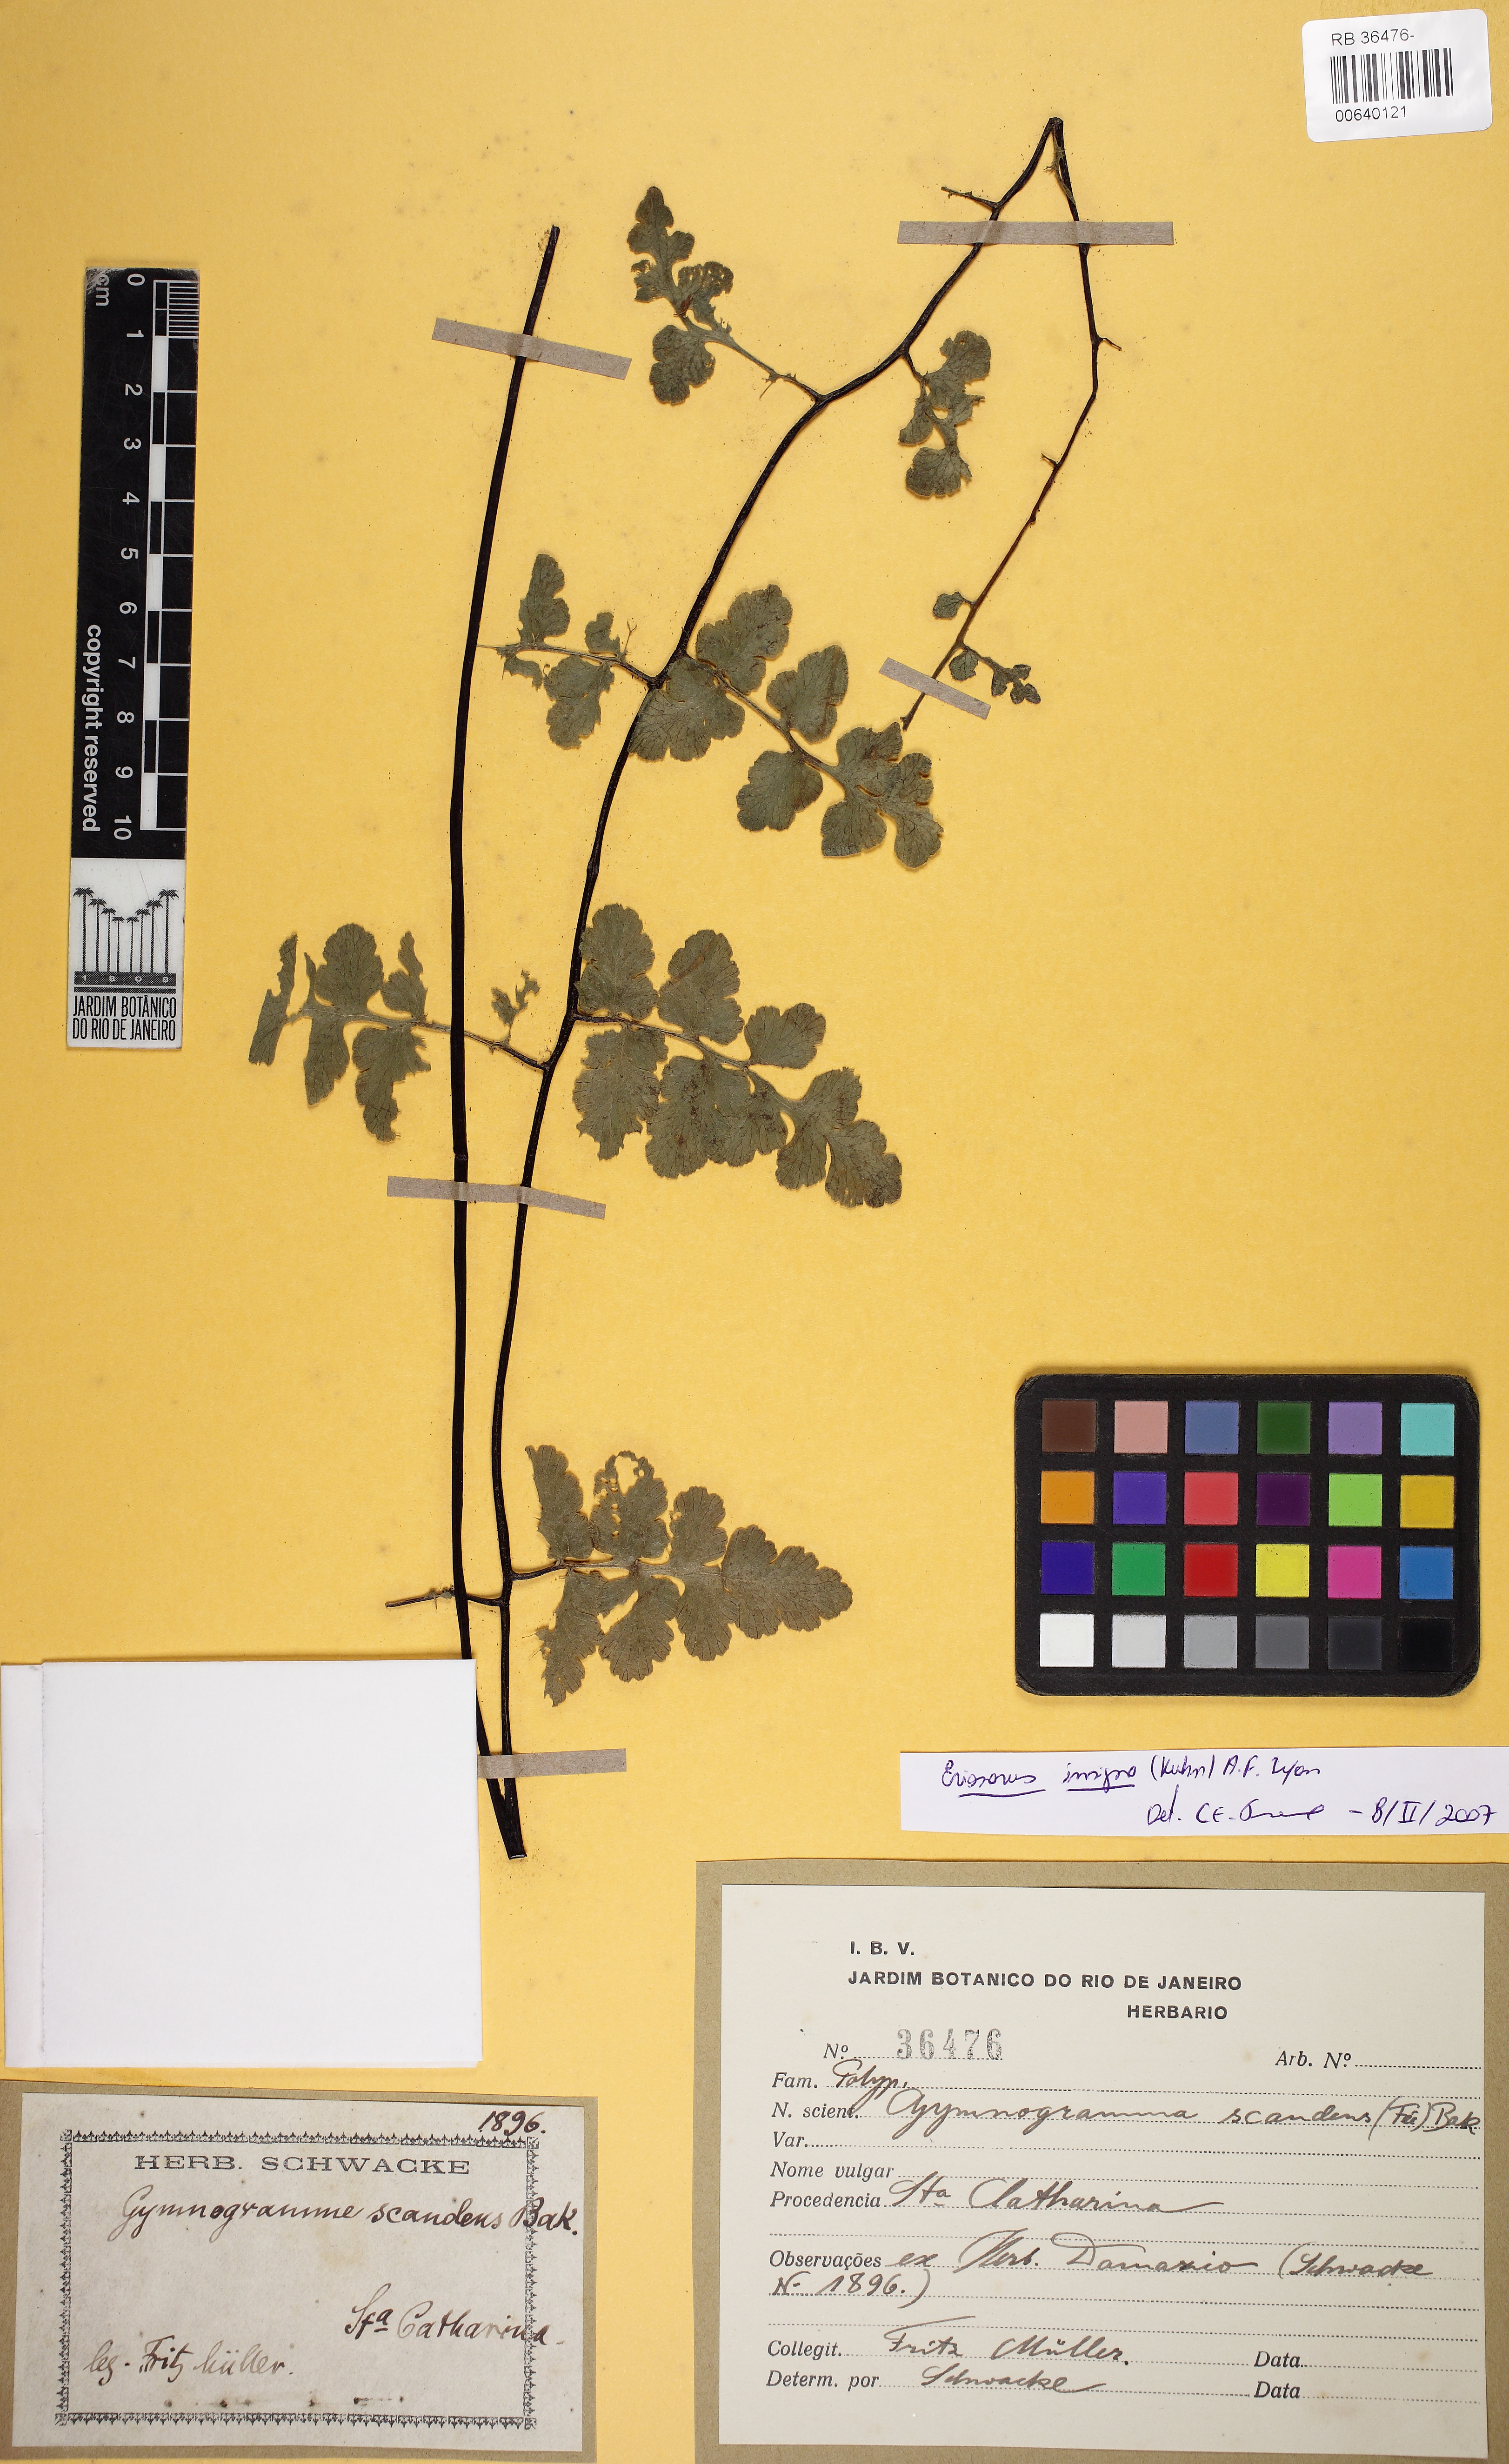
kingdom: Plantae
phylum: Tracheophyta
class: Polypodiopsida
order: Polypodiales
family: Pteridaceae
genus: Jamesonia
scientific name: Jamesonia insignis
